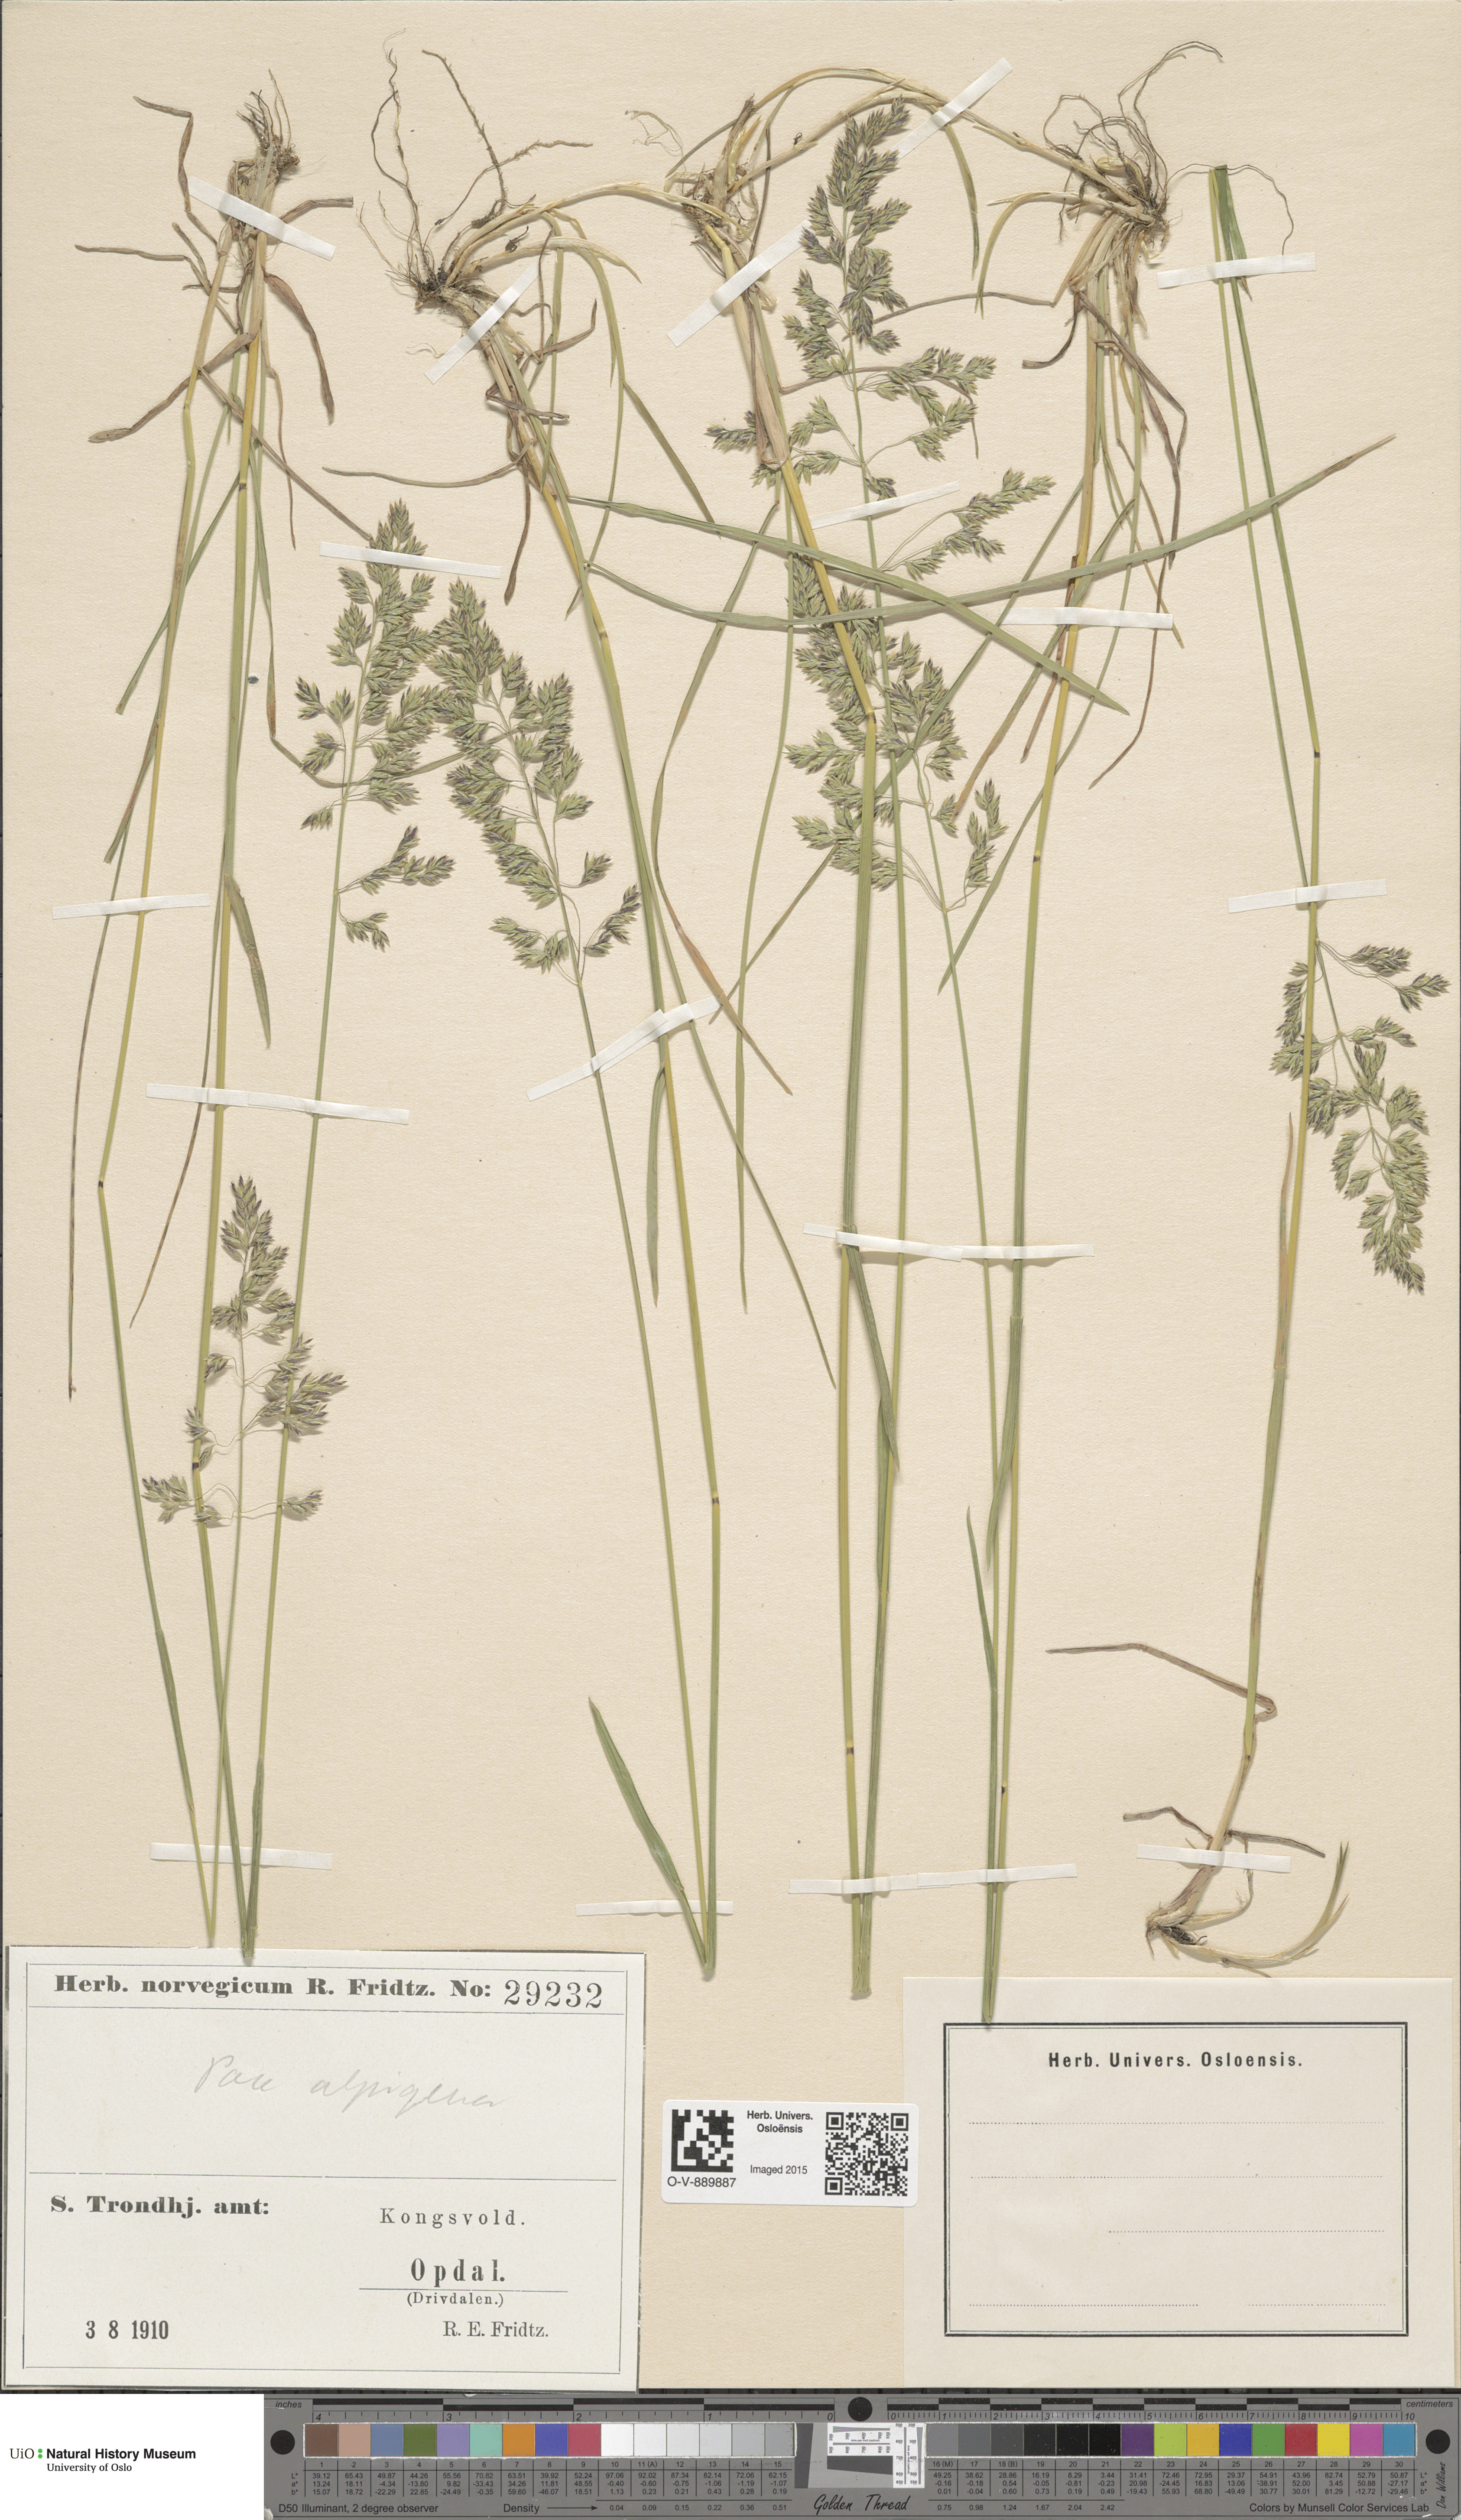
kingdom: Plantae
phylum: Tracheophyta
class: Liliopsida
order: Poales
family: Poaceae
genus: Poa
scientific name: Poa alpigena
